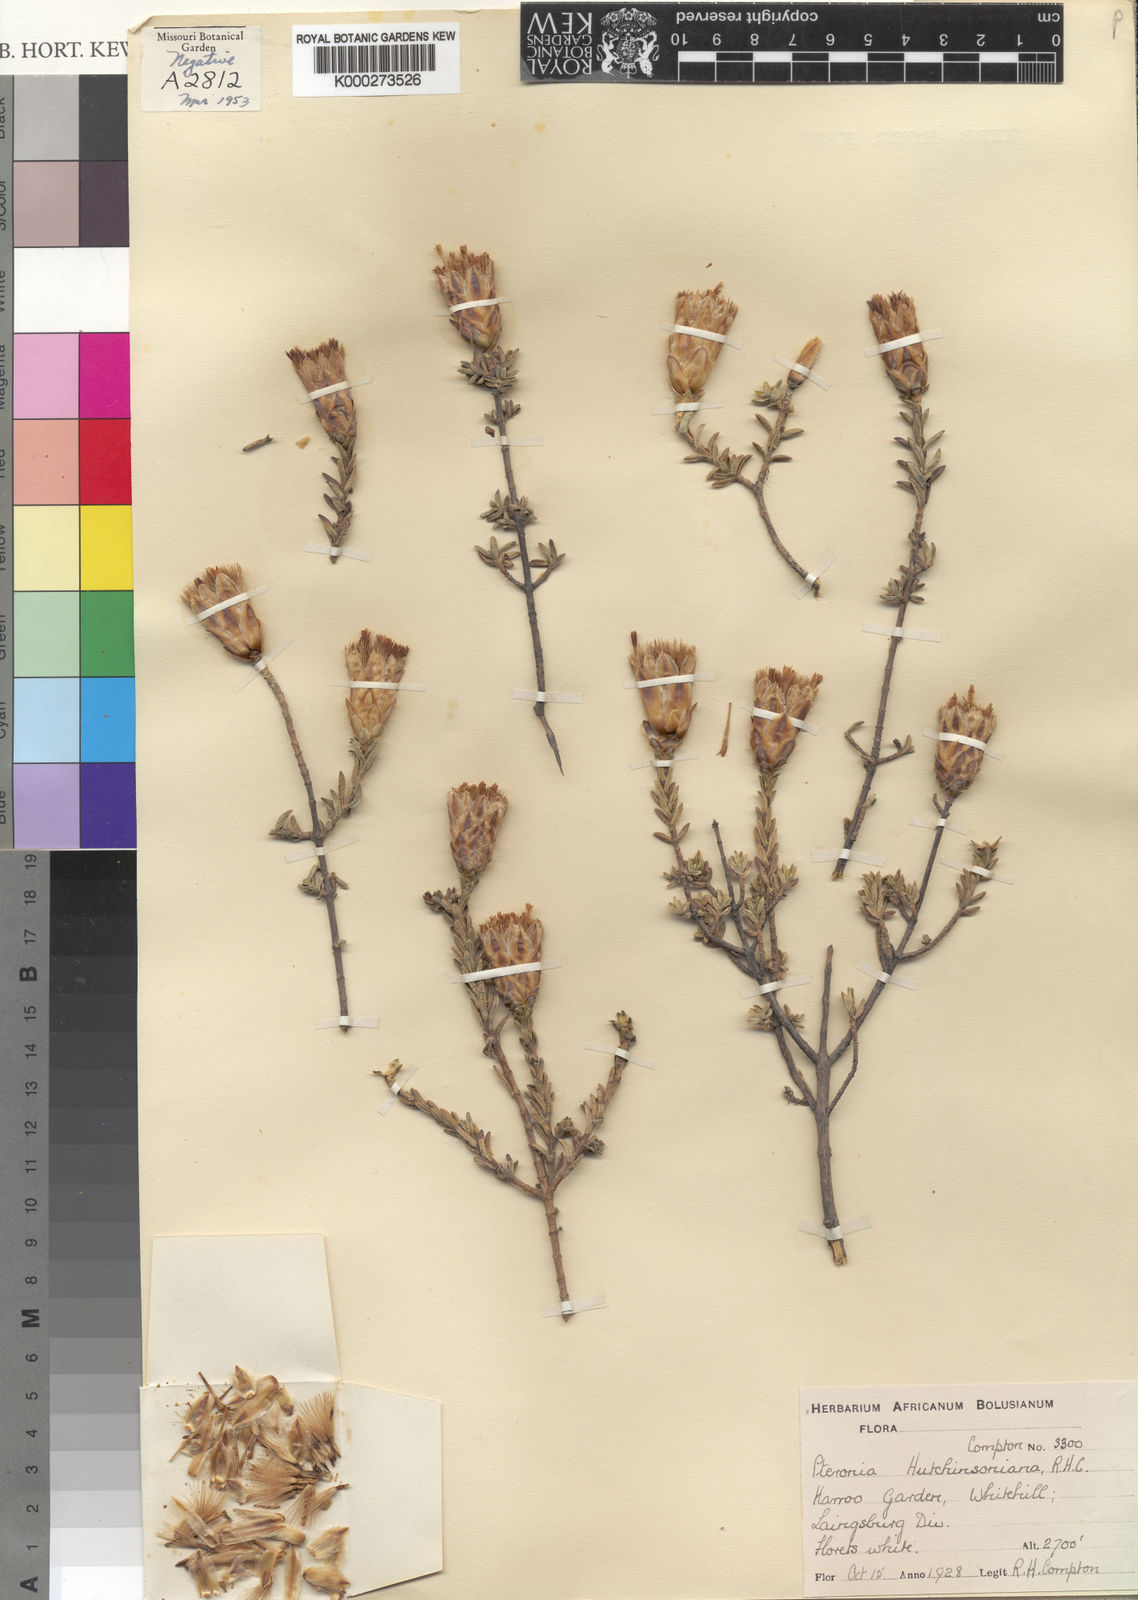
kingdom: Plantae
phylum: Tracheophyta
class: Magnoliopsida
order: Asterales
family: Asteraceae
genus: Pteronia
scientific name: Pteronia hutchinsoniana
